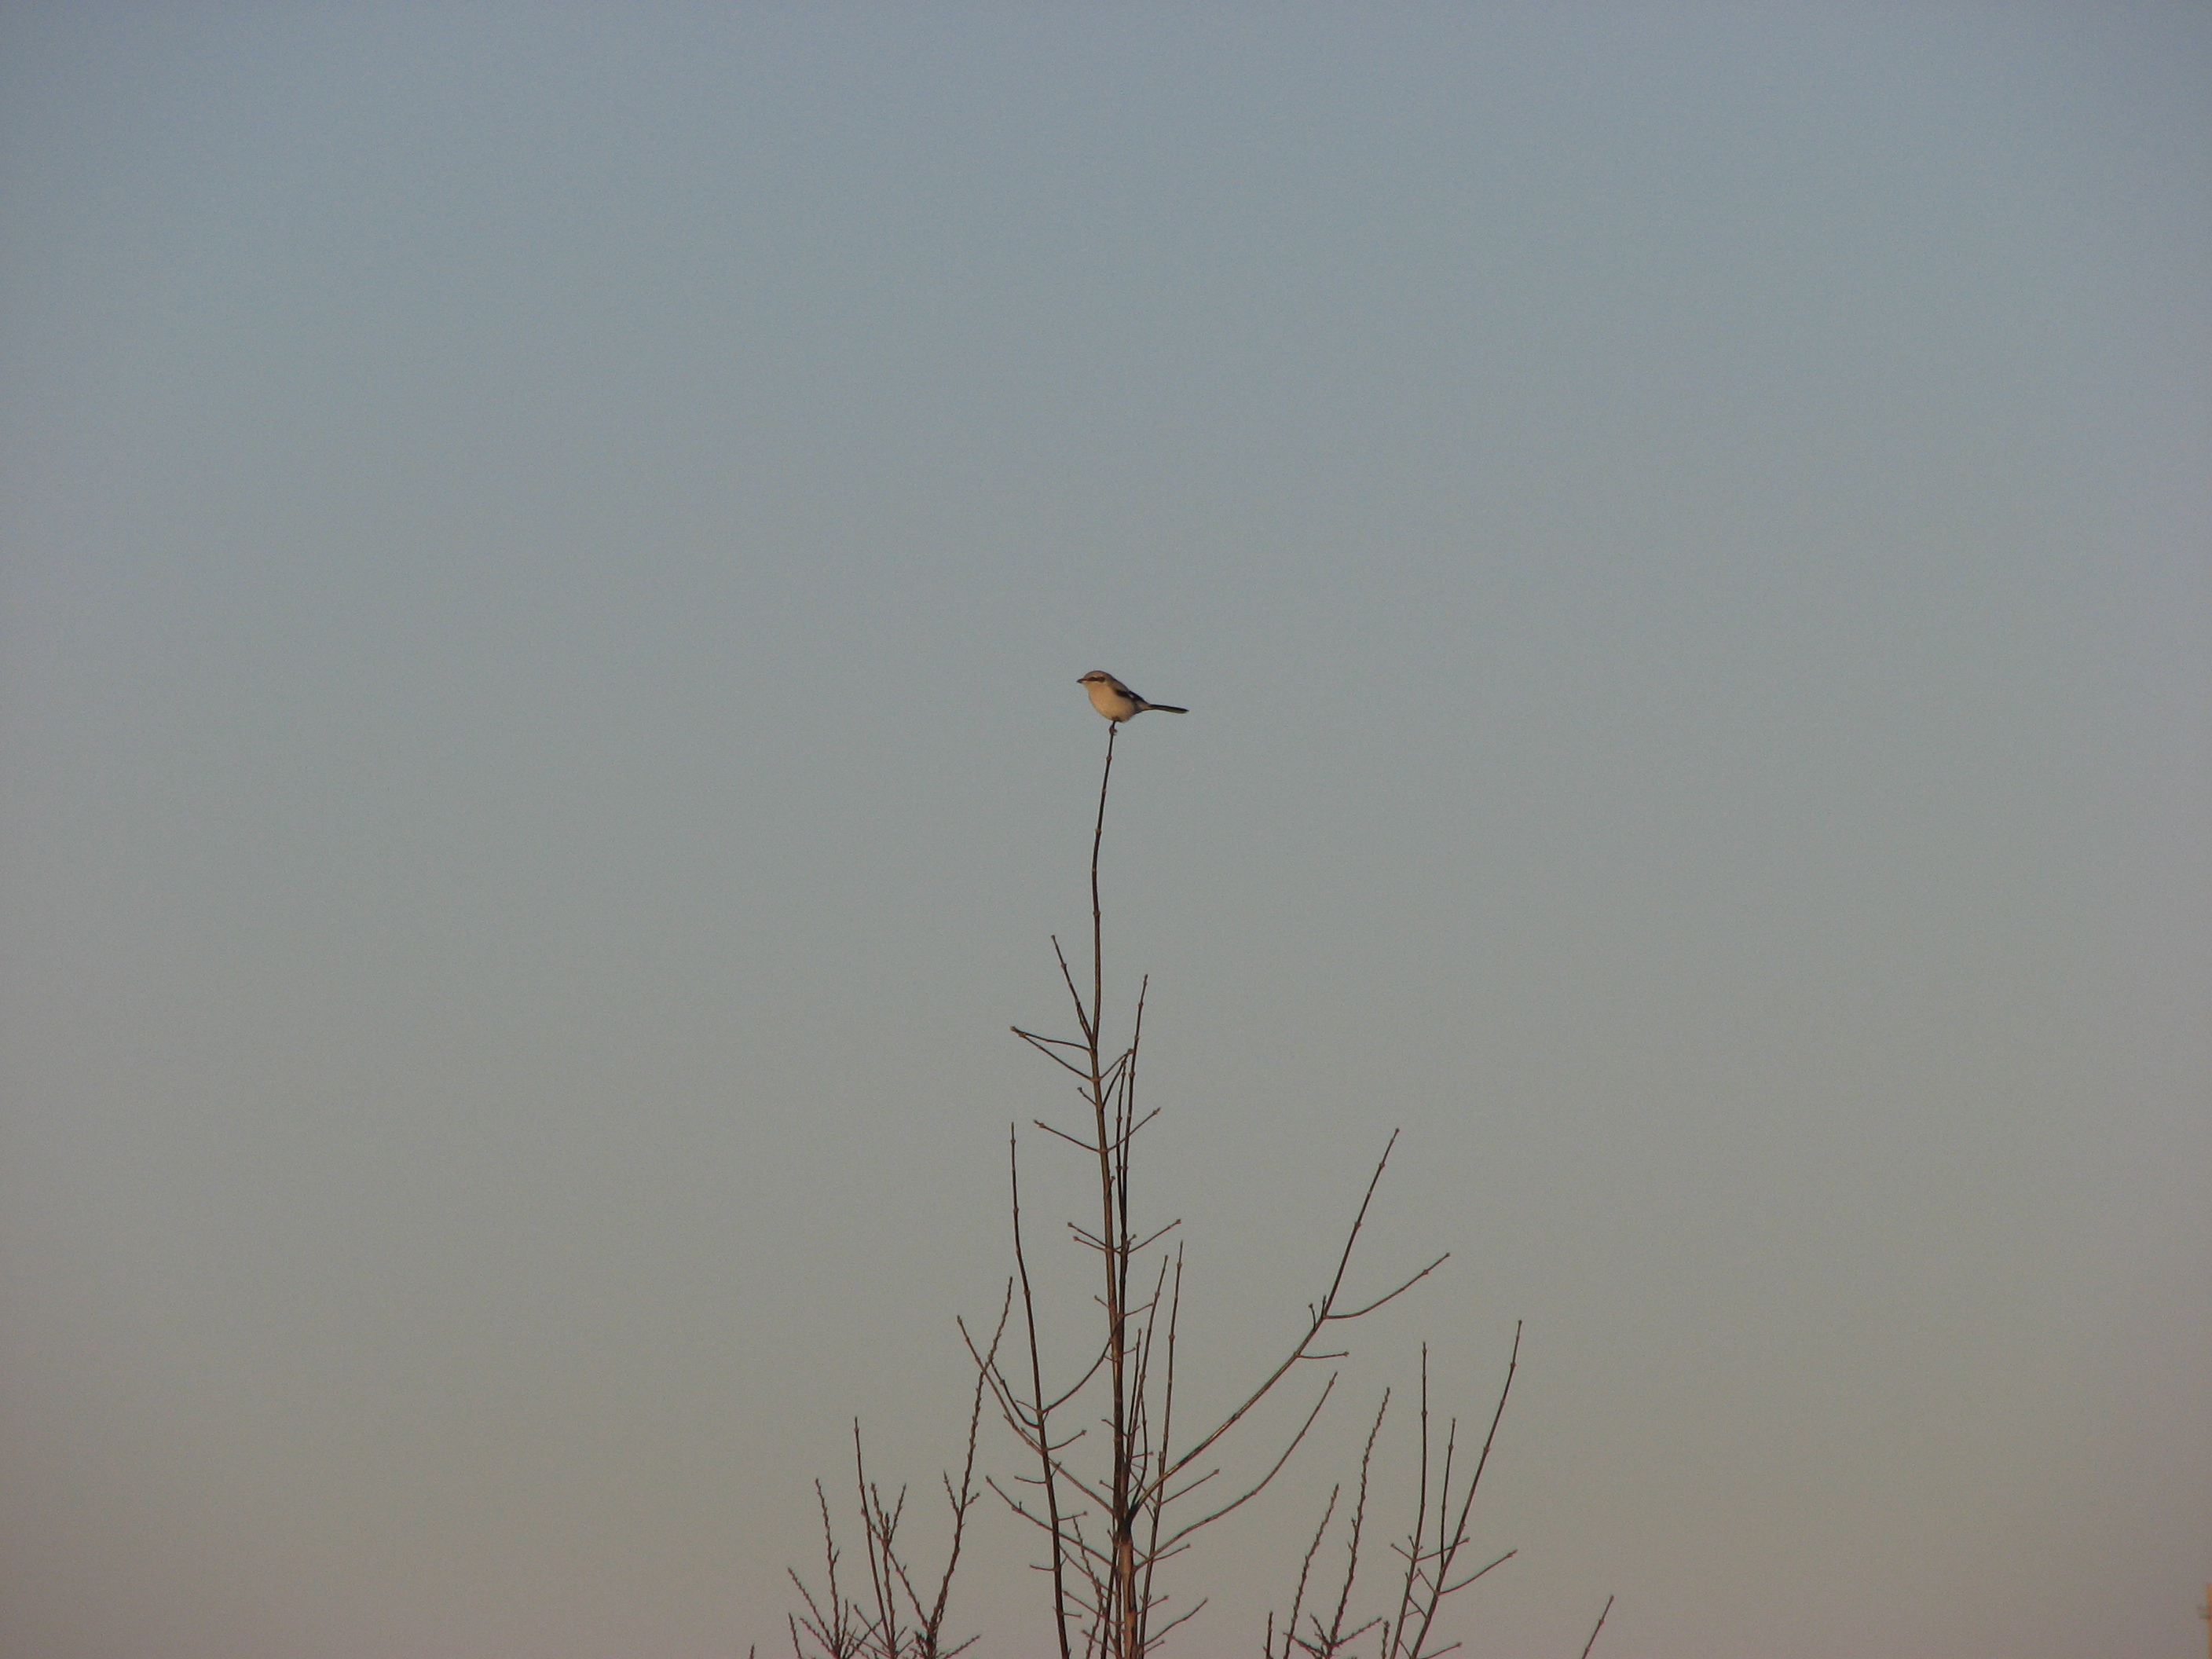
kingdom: Animalia
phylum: Chordata
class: Aves
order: Passeriformes
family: Laniidae
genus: Lanius
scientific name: Lanius excubitor
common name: Great grey shrike
